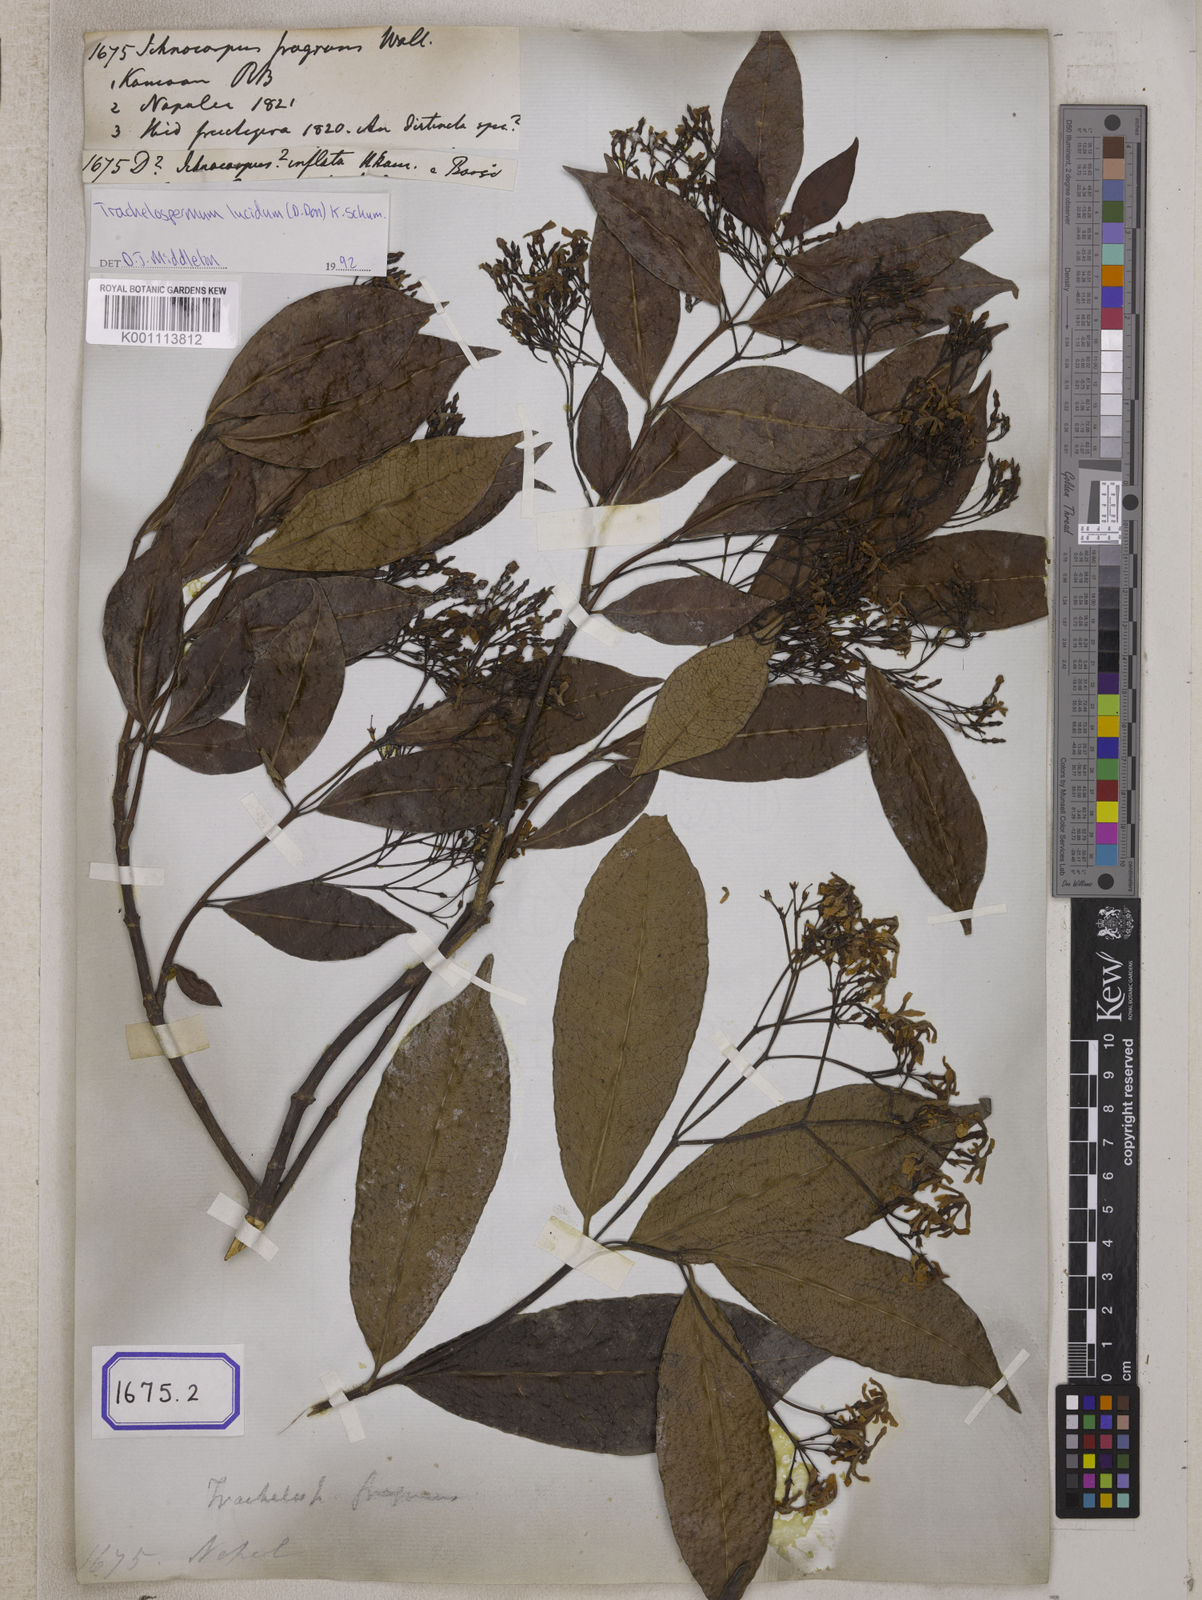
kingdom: Plantae
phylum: Tracheophyta
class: Magnoliopsida
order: Gentianales
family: Apocynaceae
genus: Ichnocarpus
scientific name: Ichnocarpus
